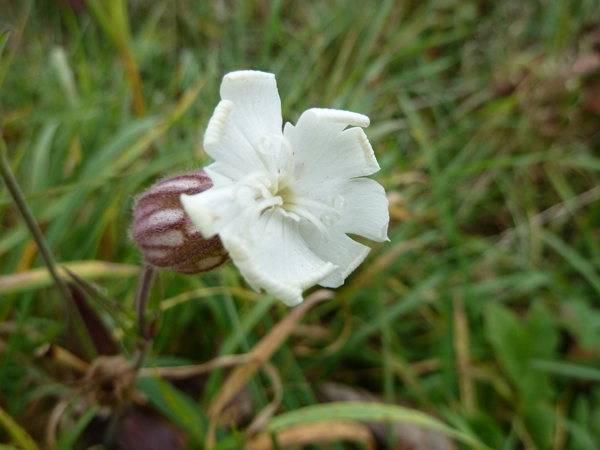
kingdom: Plantae
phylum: Tracheophyta
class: Magnoliopsida
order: Caryophyllales
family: Caryophyllaceae
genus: Silene
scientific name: Silene latifolia
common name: White campion
